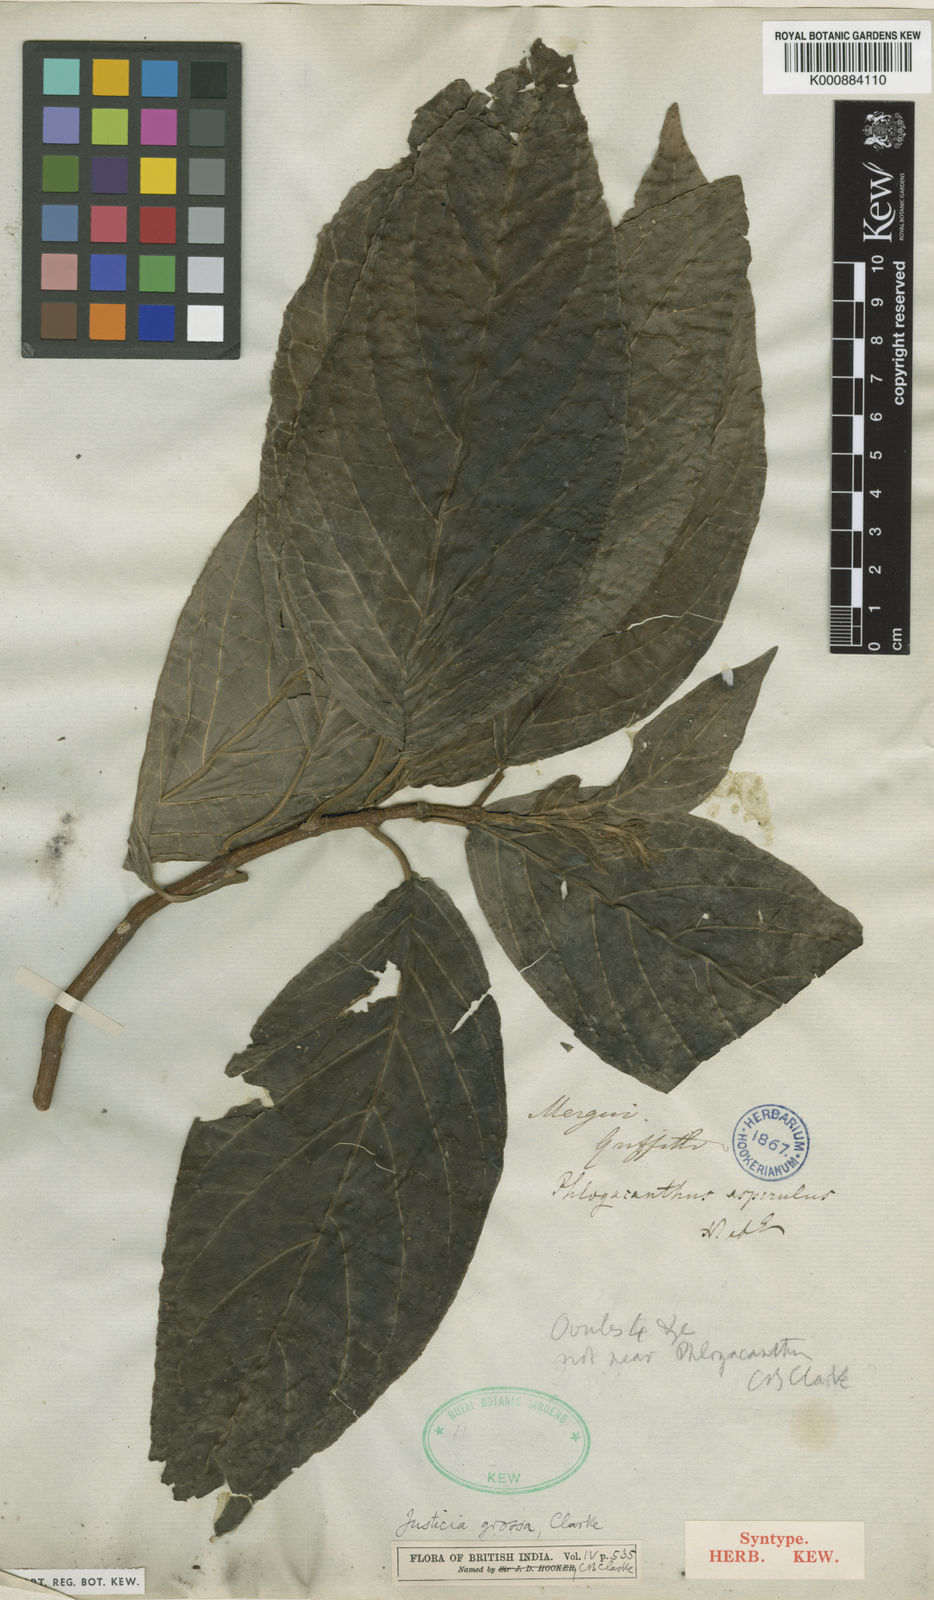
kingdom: Plantae
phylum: Tracheophyta
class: Magnoliopsida
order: Lamiales
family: Acanthaceae
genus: Ecbolium
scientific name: Ecbolium grossum
